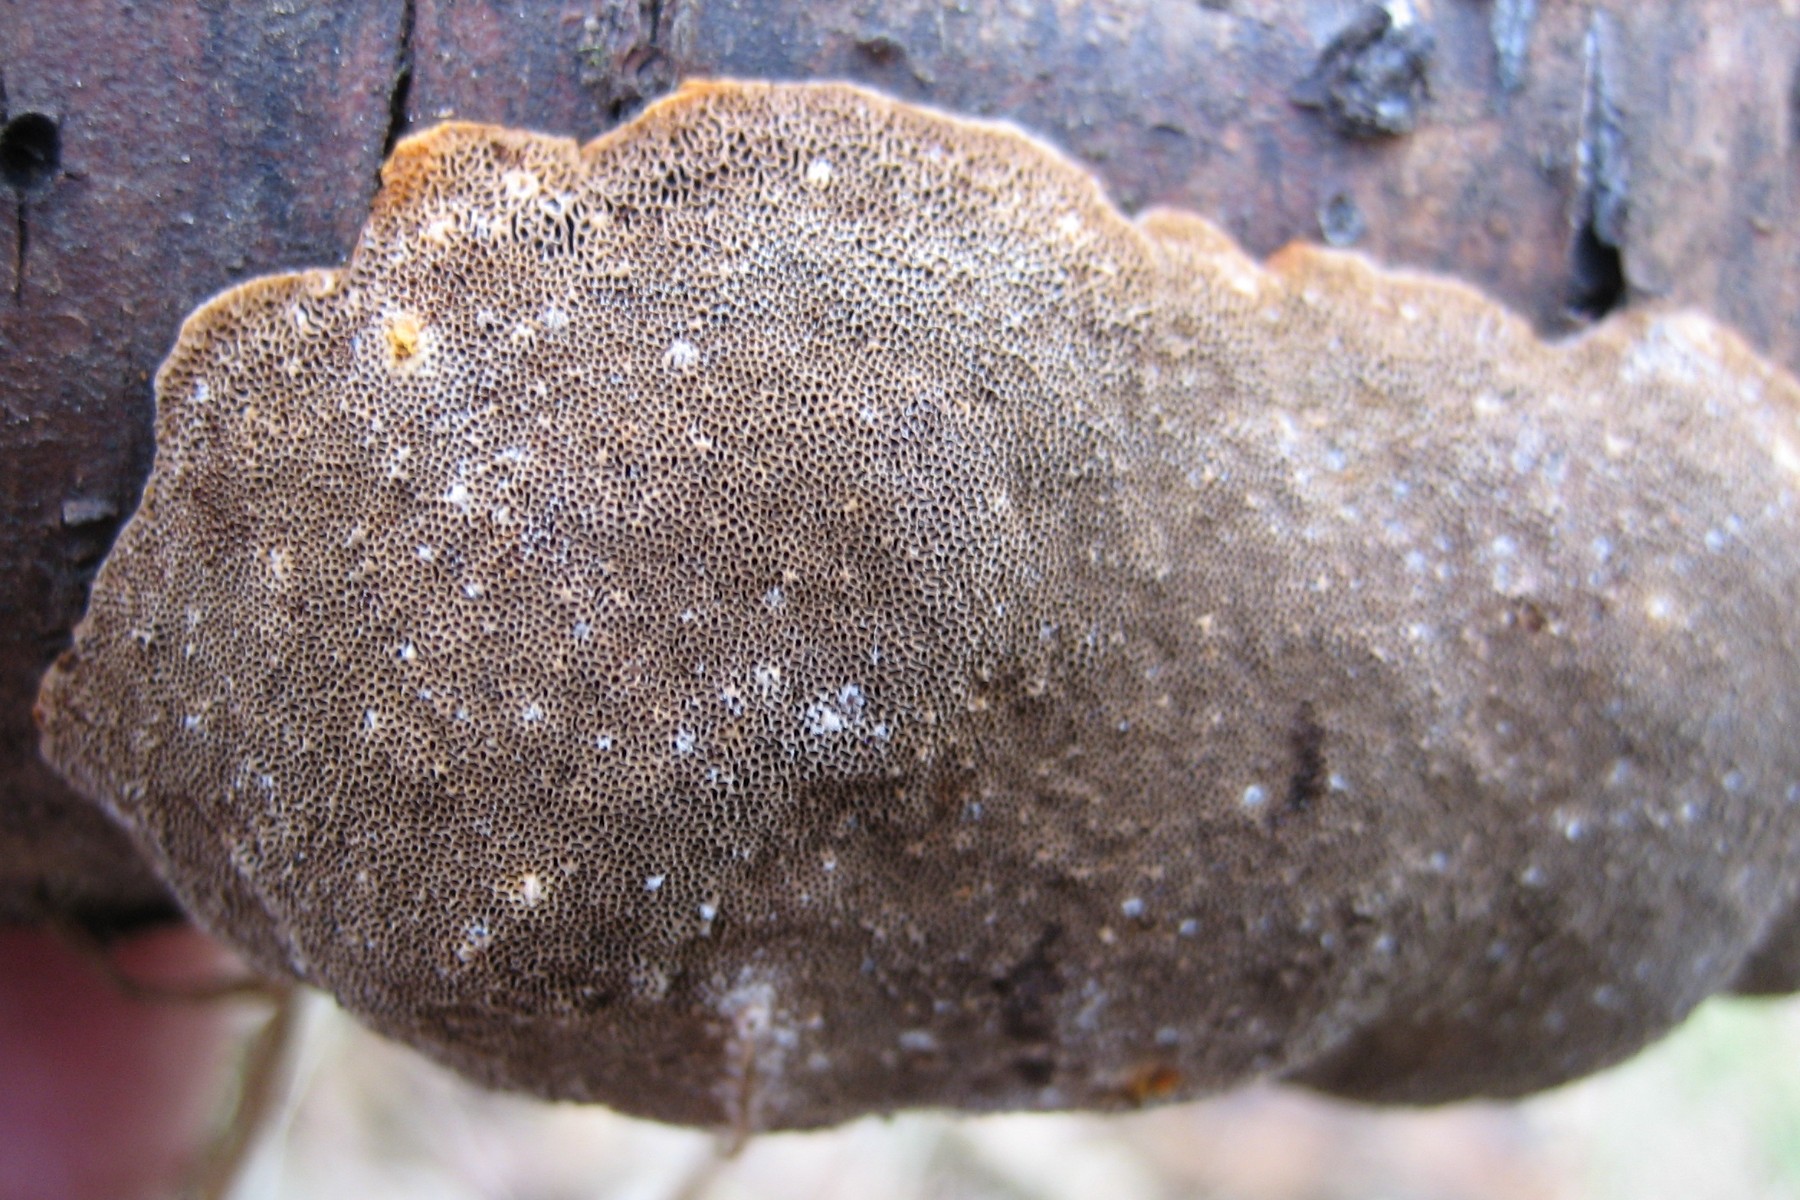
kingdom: Fungi
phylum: Basidiomycota
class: Agaricomycetes
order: Hymenochaetales
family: Hymenochaetaceae
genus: Phellinus
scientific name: Phellinus pomaceus
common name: blomme-ildporesvamp
